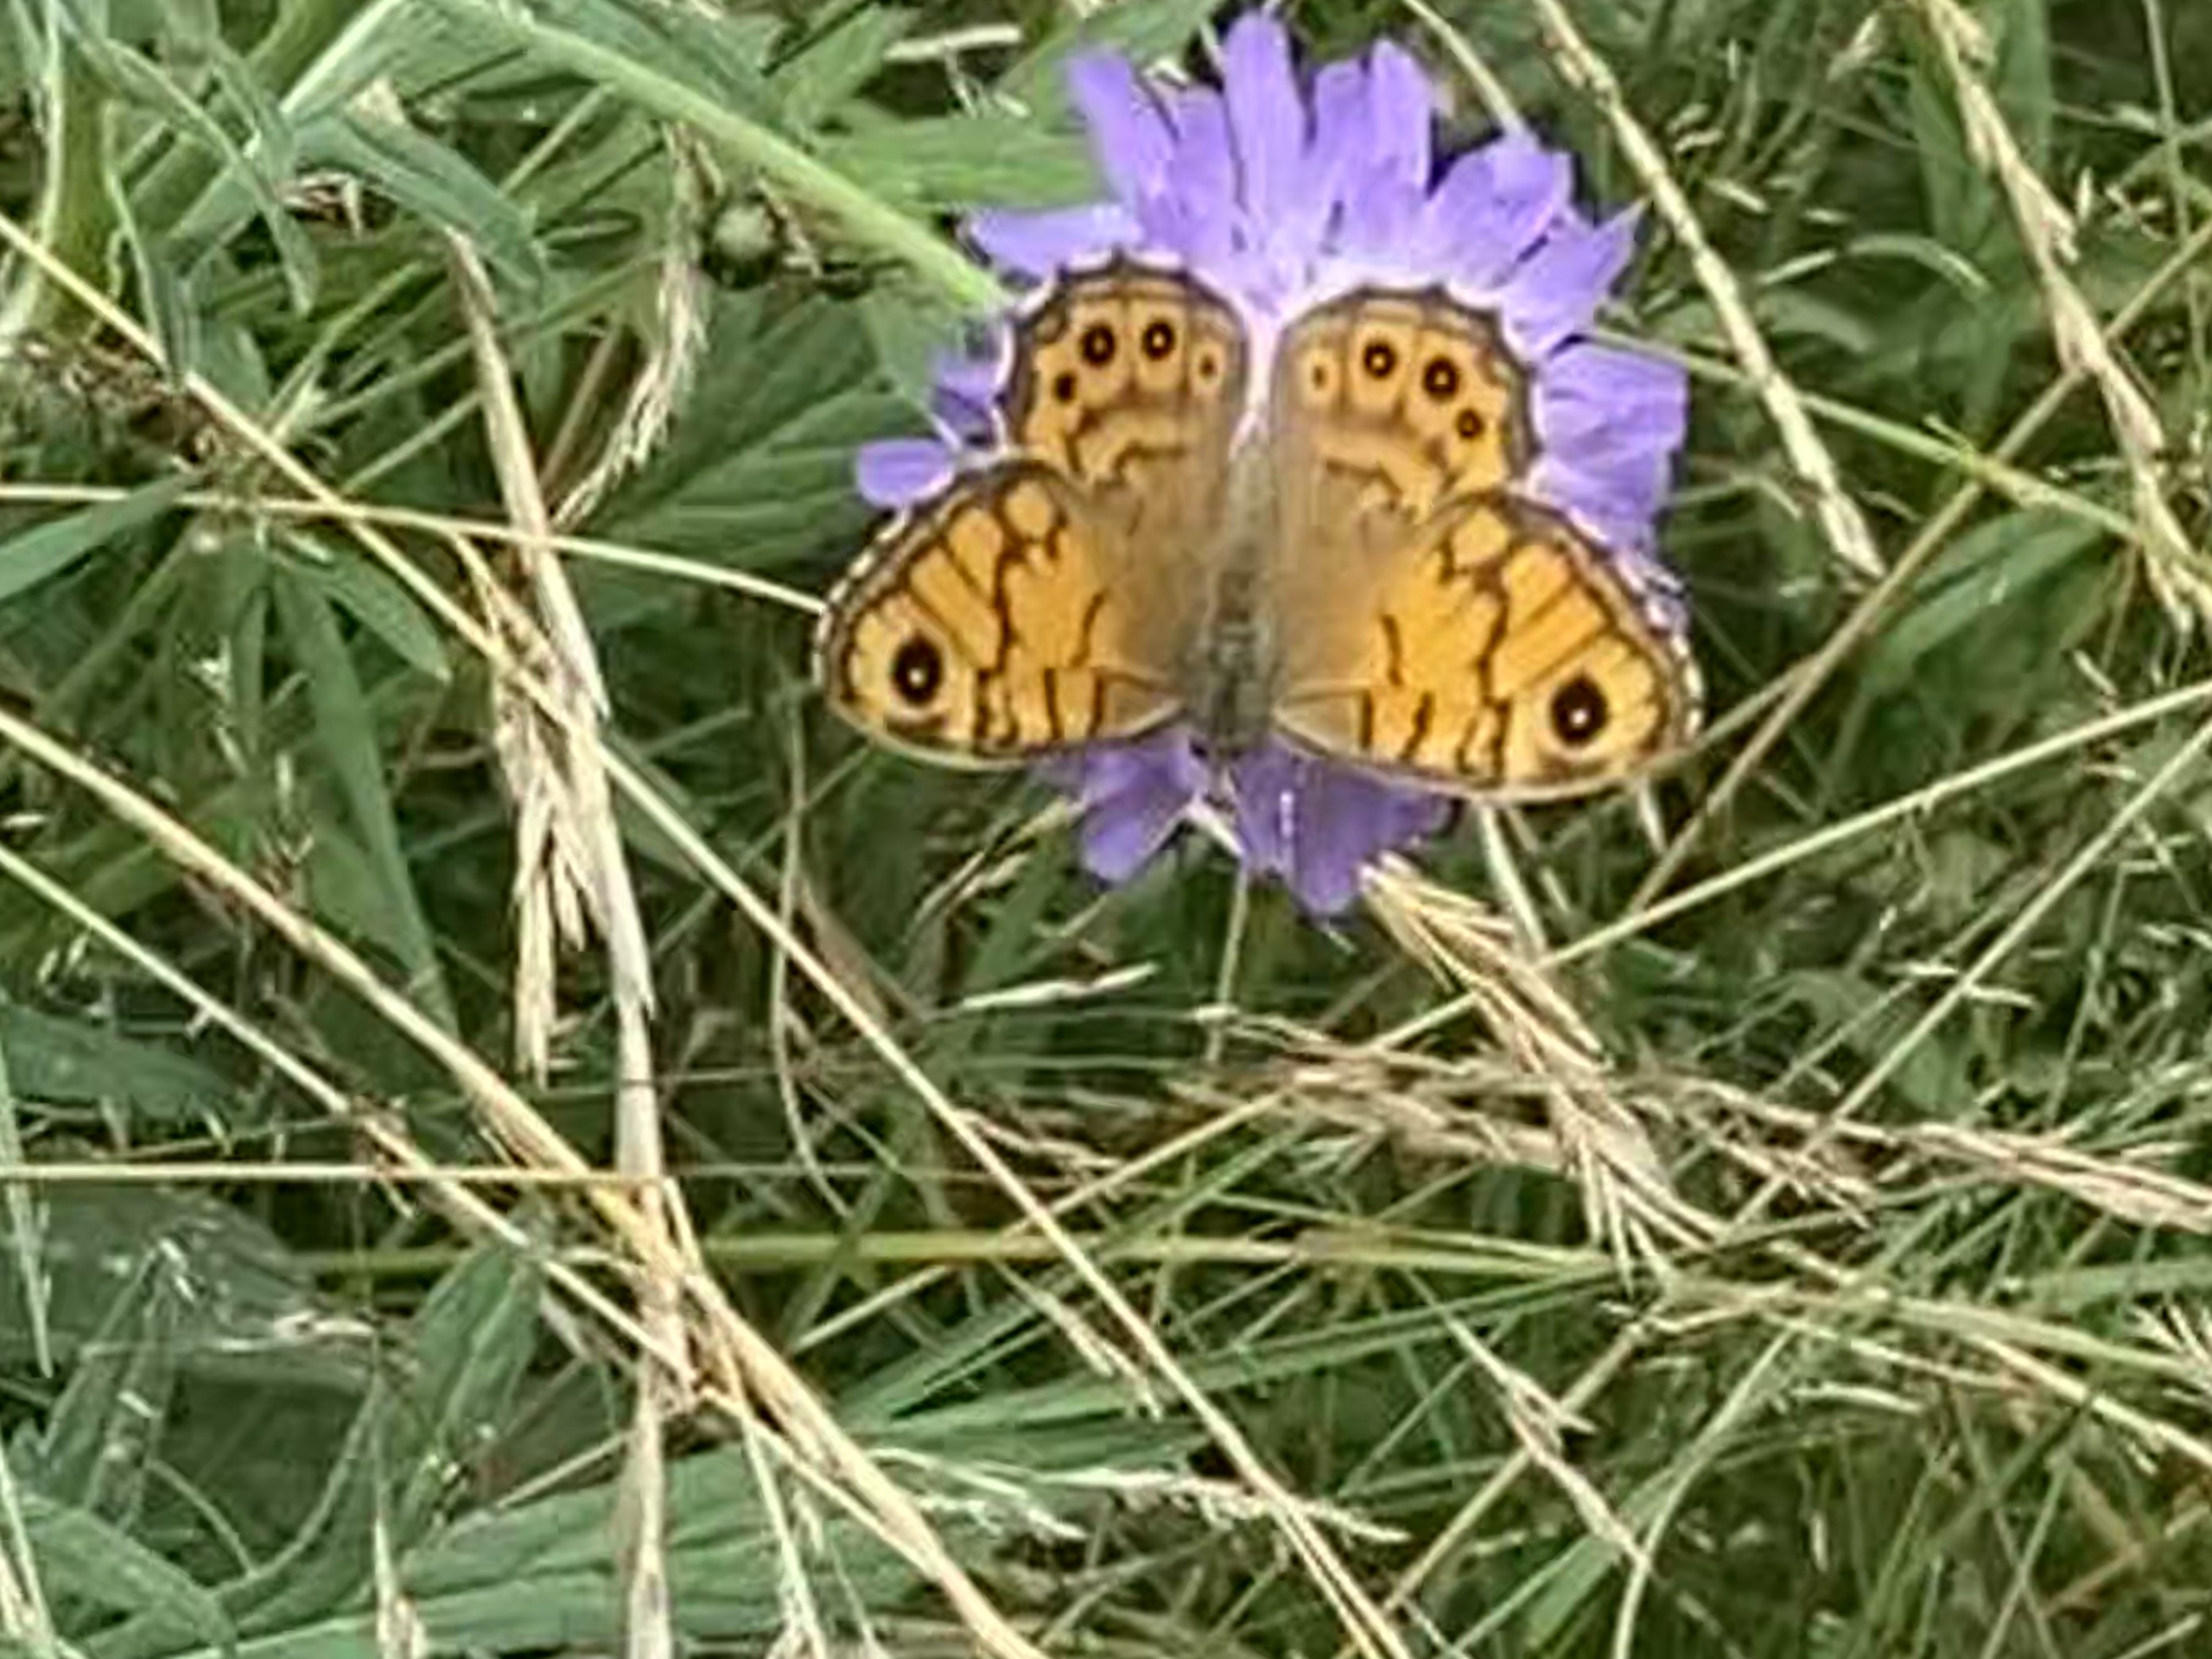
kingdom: Animalia
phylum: Arthropoda
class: Insecta
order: Lepidoptera
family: Nymphalidae
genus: Pararge
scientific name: Pararge Lasiommata megera
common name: Vejrandøje
